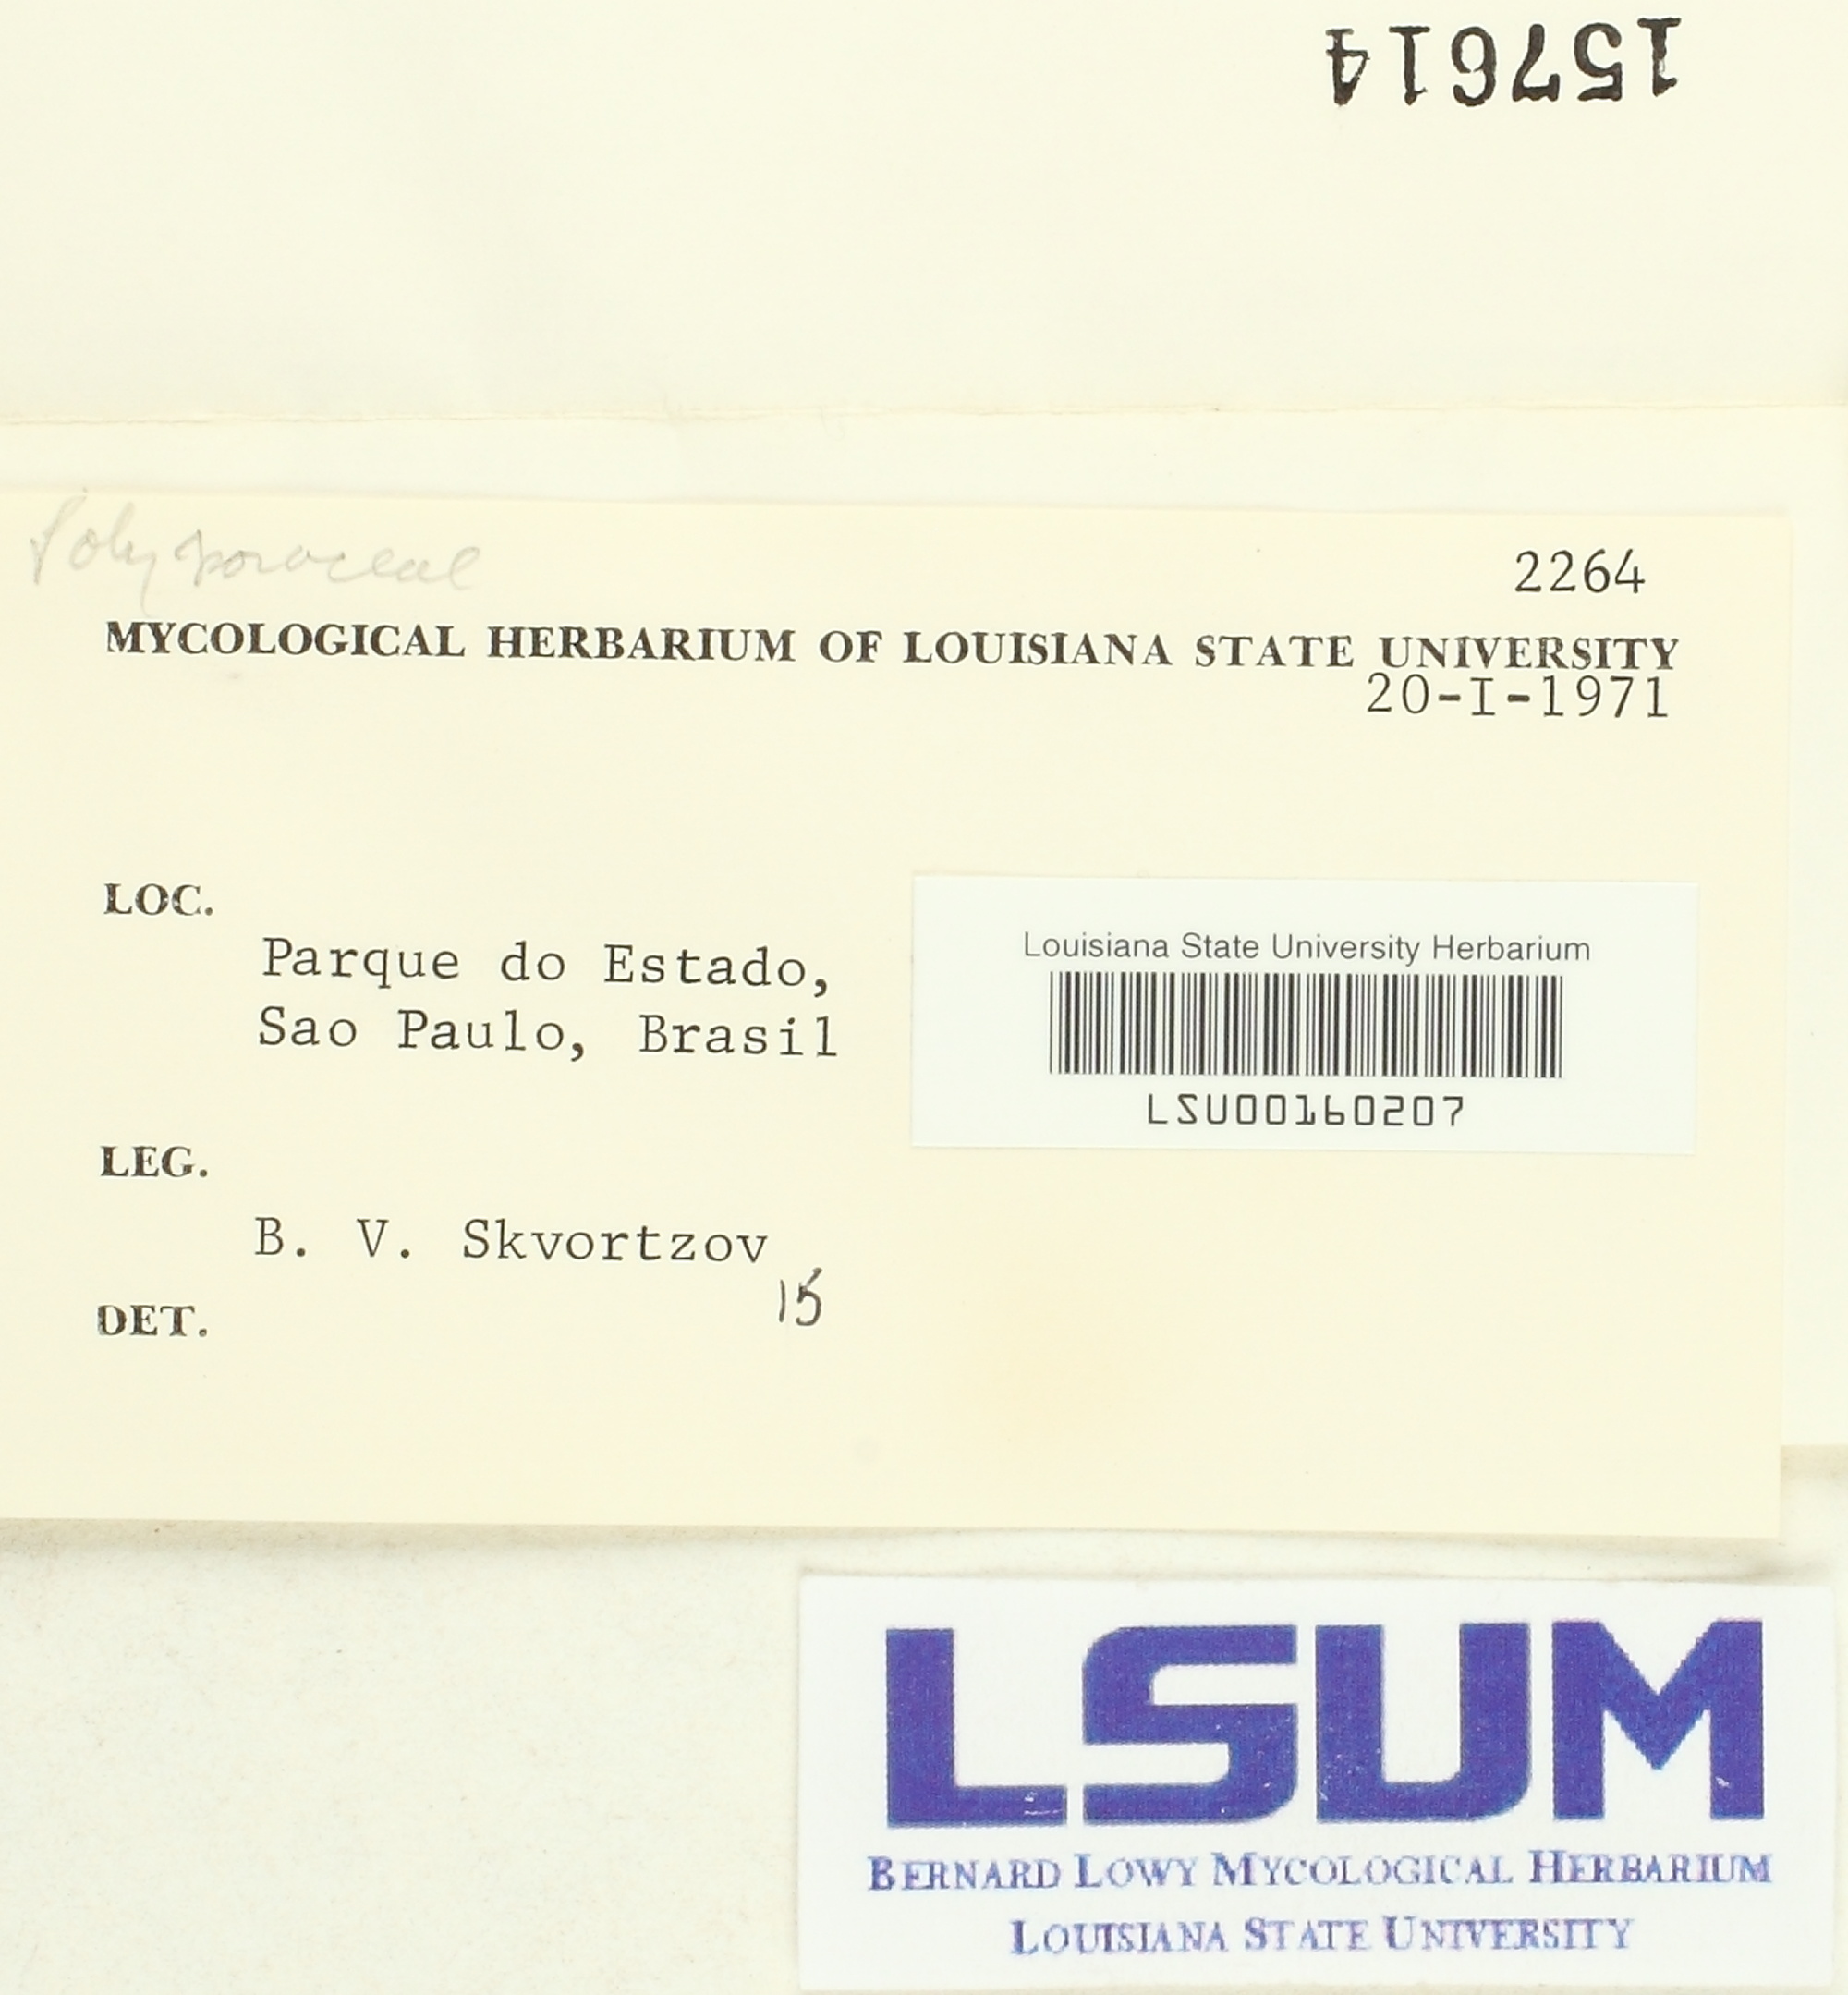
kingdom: Fungi
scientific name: Fungi
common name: Fungi
